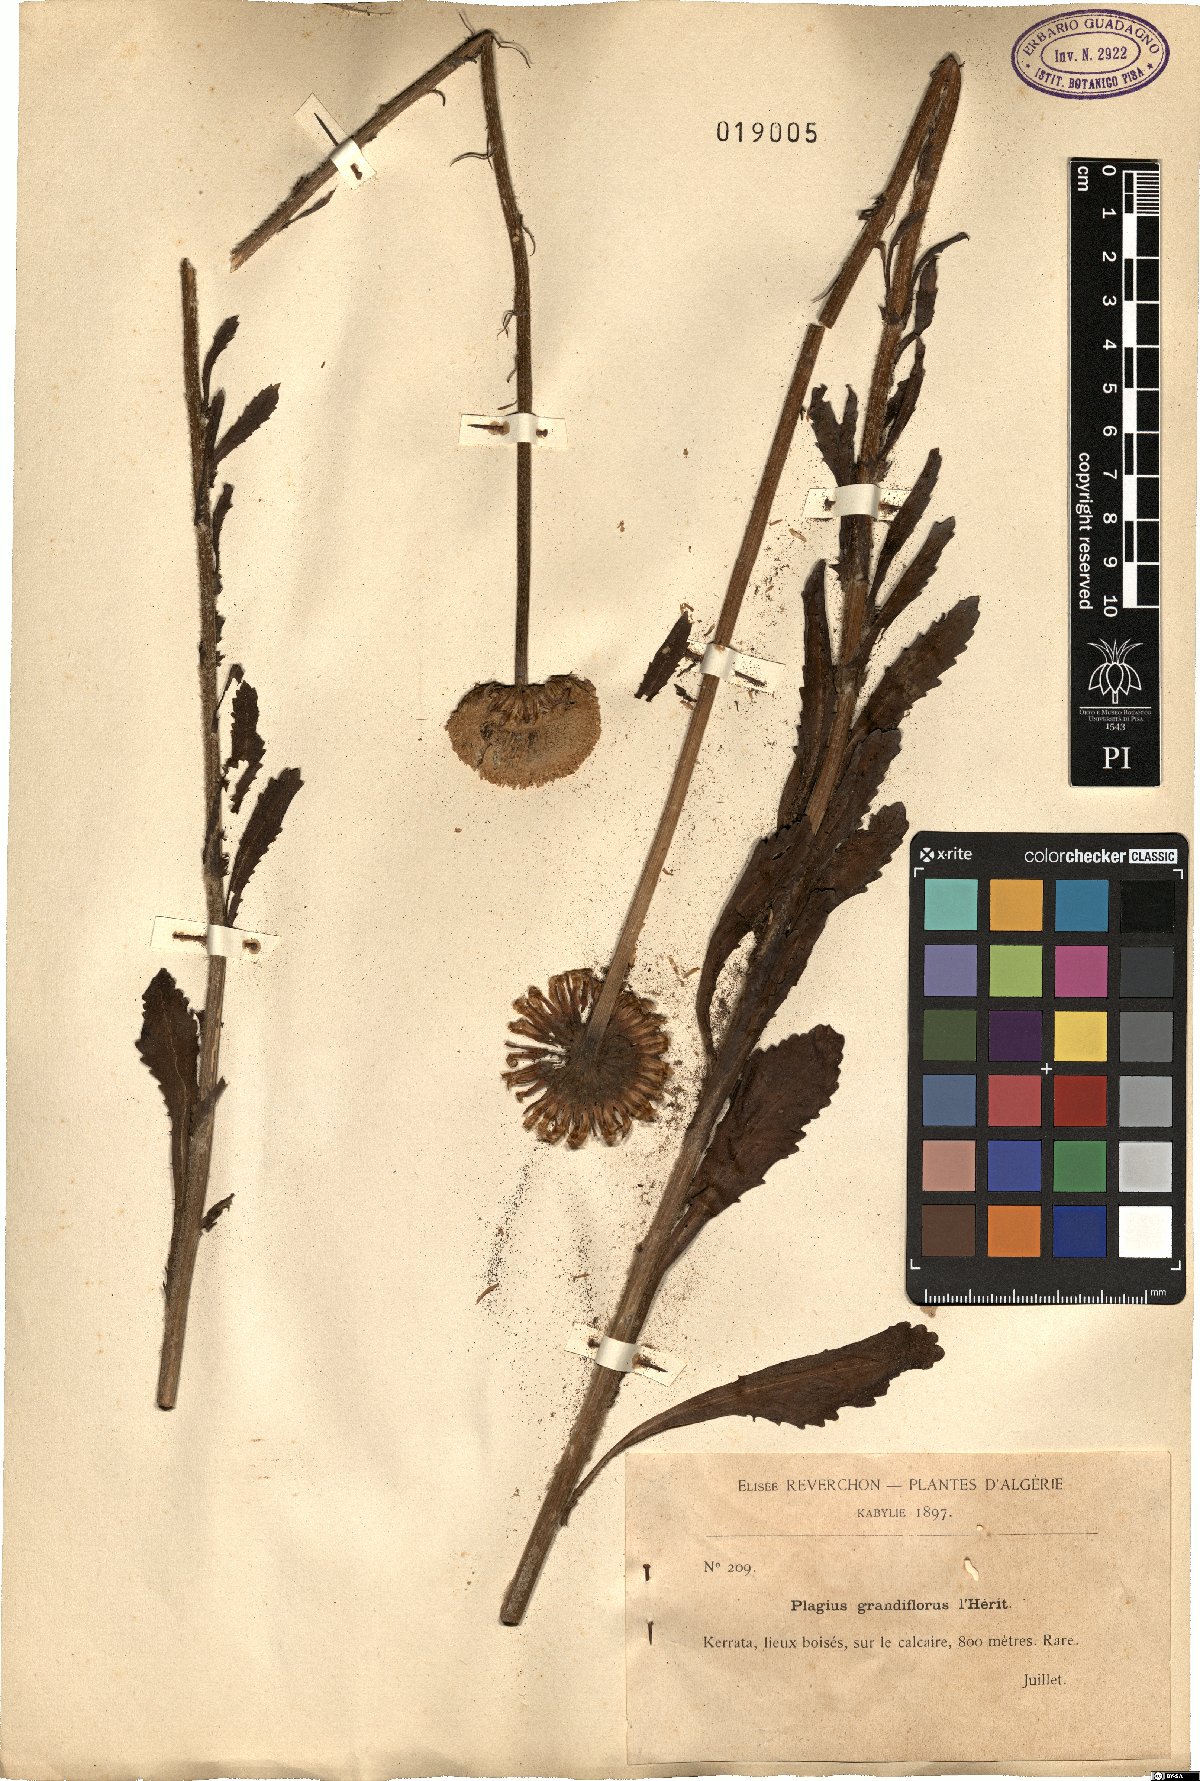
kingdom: Plantae
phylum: Tracheophyta
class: Magnoliopsida
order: Asterales
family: Asteraceae
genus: Plagius
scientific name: Plagius grandis
